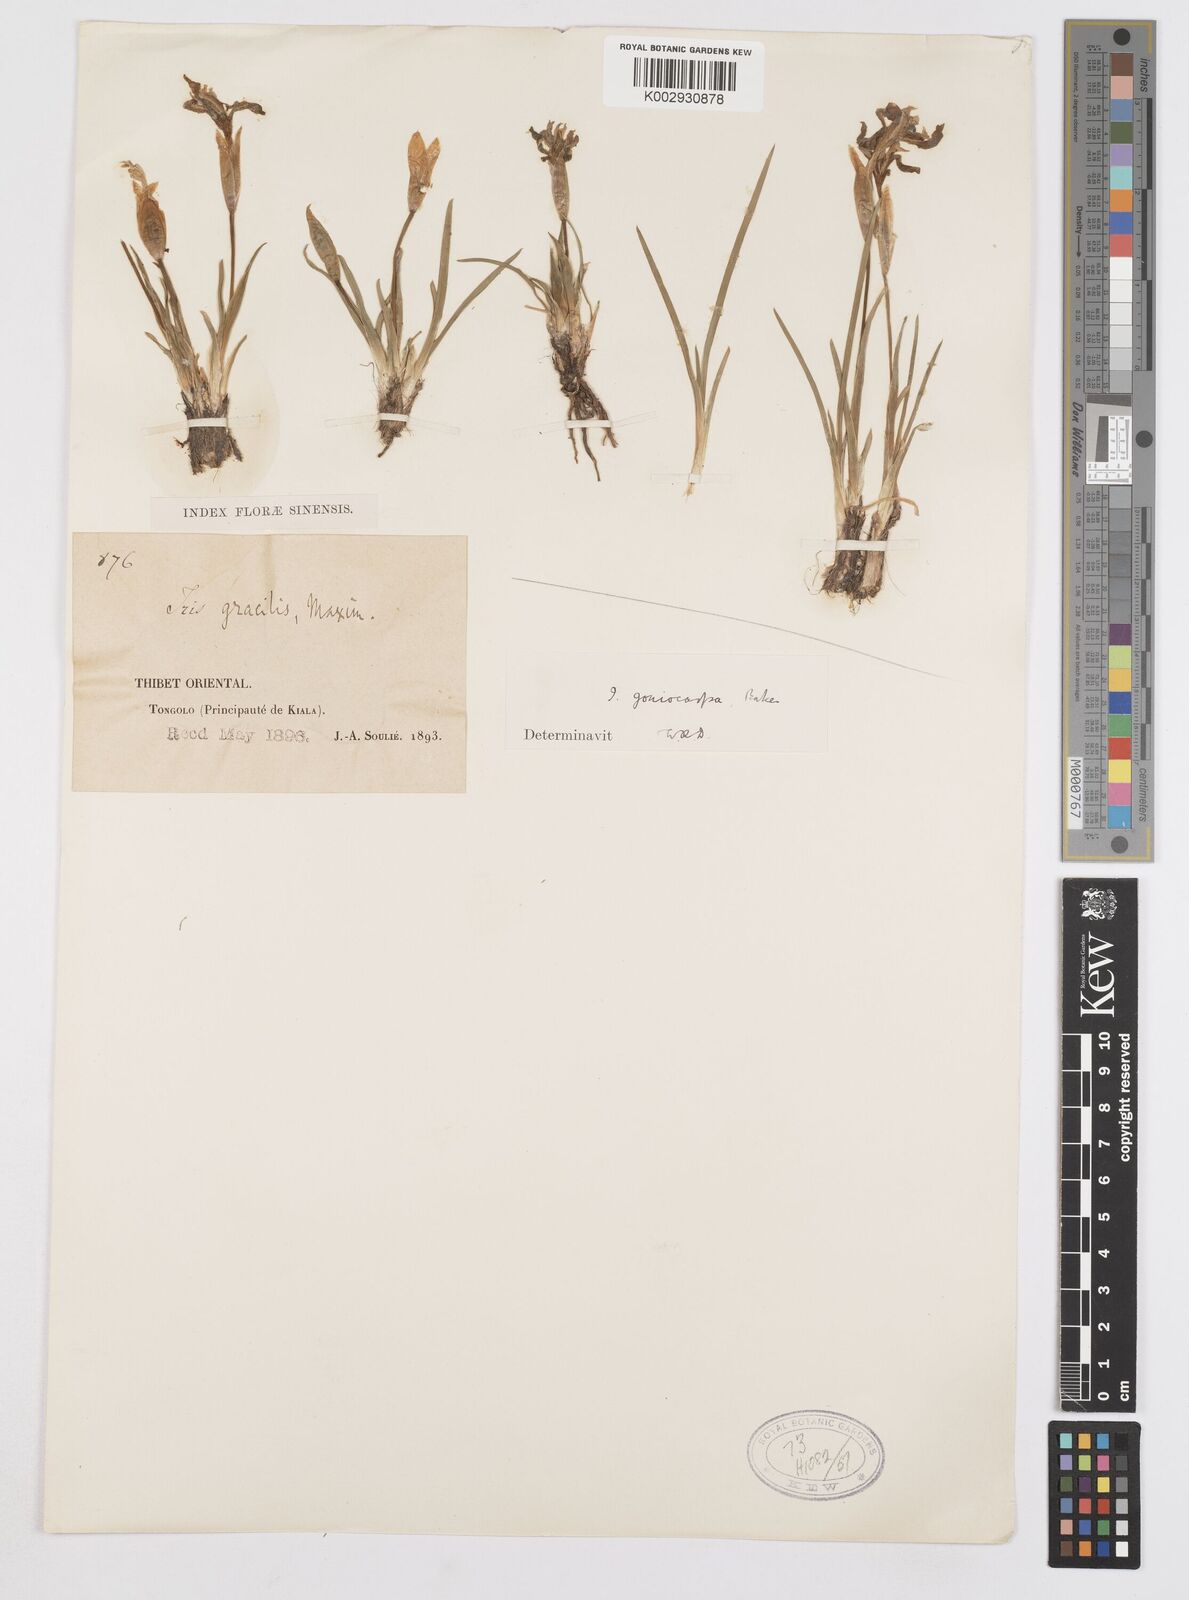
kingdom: Plantae
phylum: Tracheophyta
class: Liliopsida
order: Asparagales
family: Iridaceae
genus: Iris
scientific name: Iris goniocarpa
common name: Angular-fruit iris
